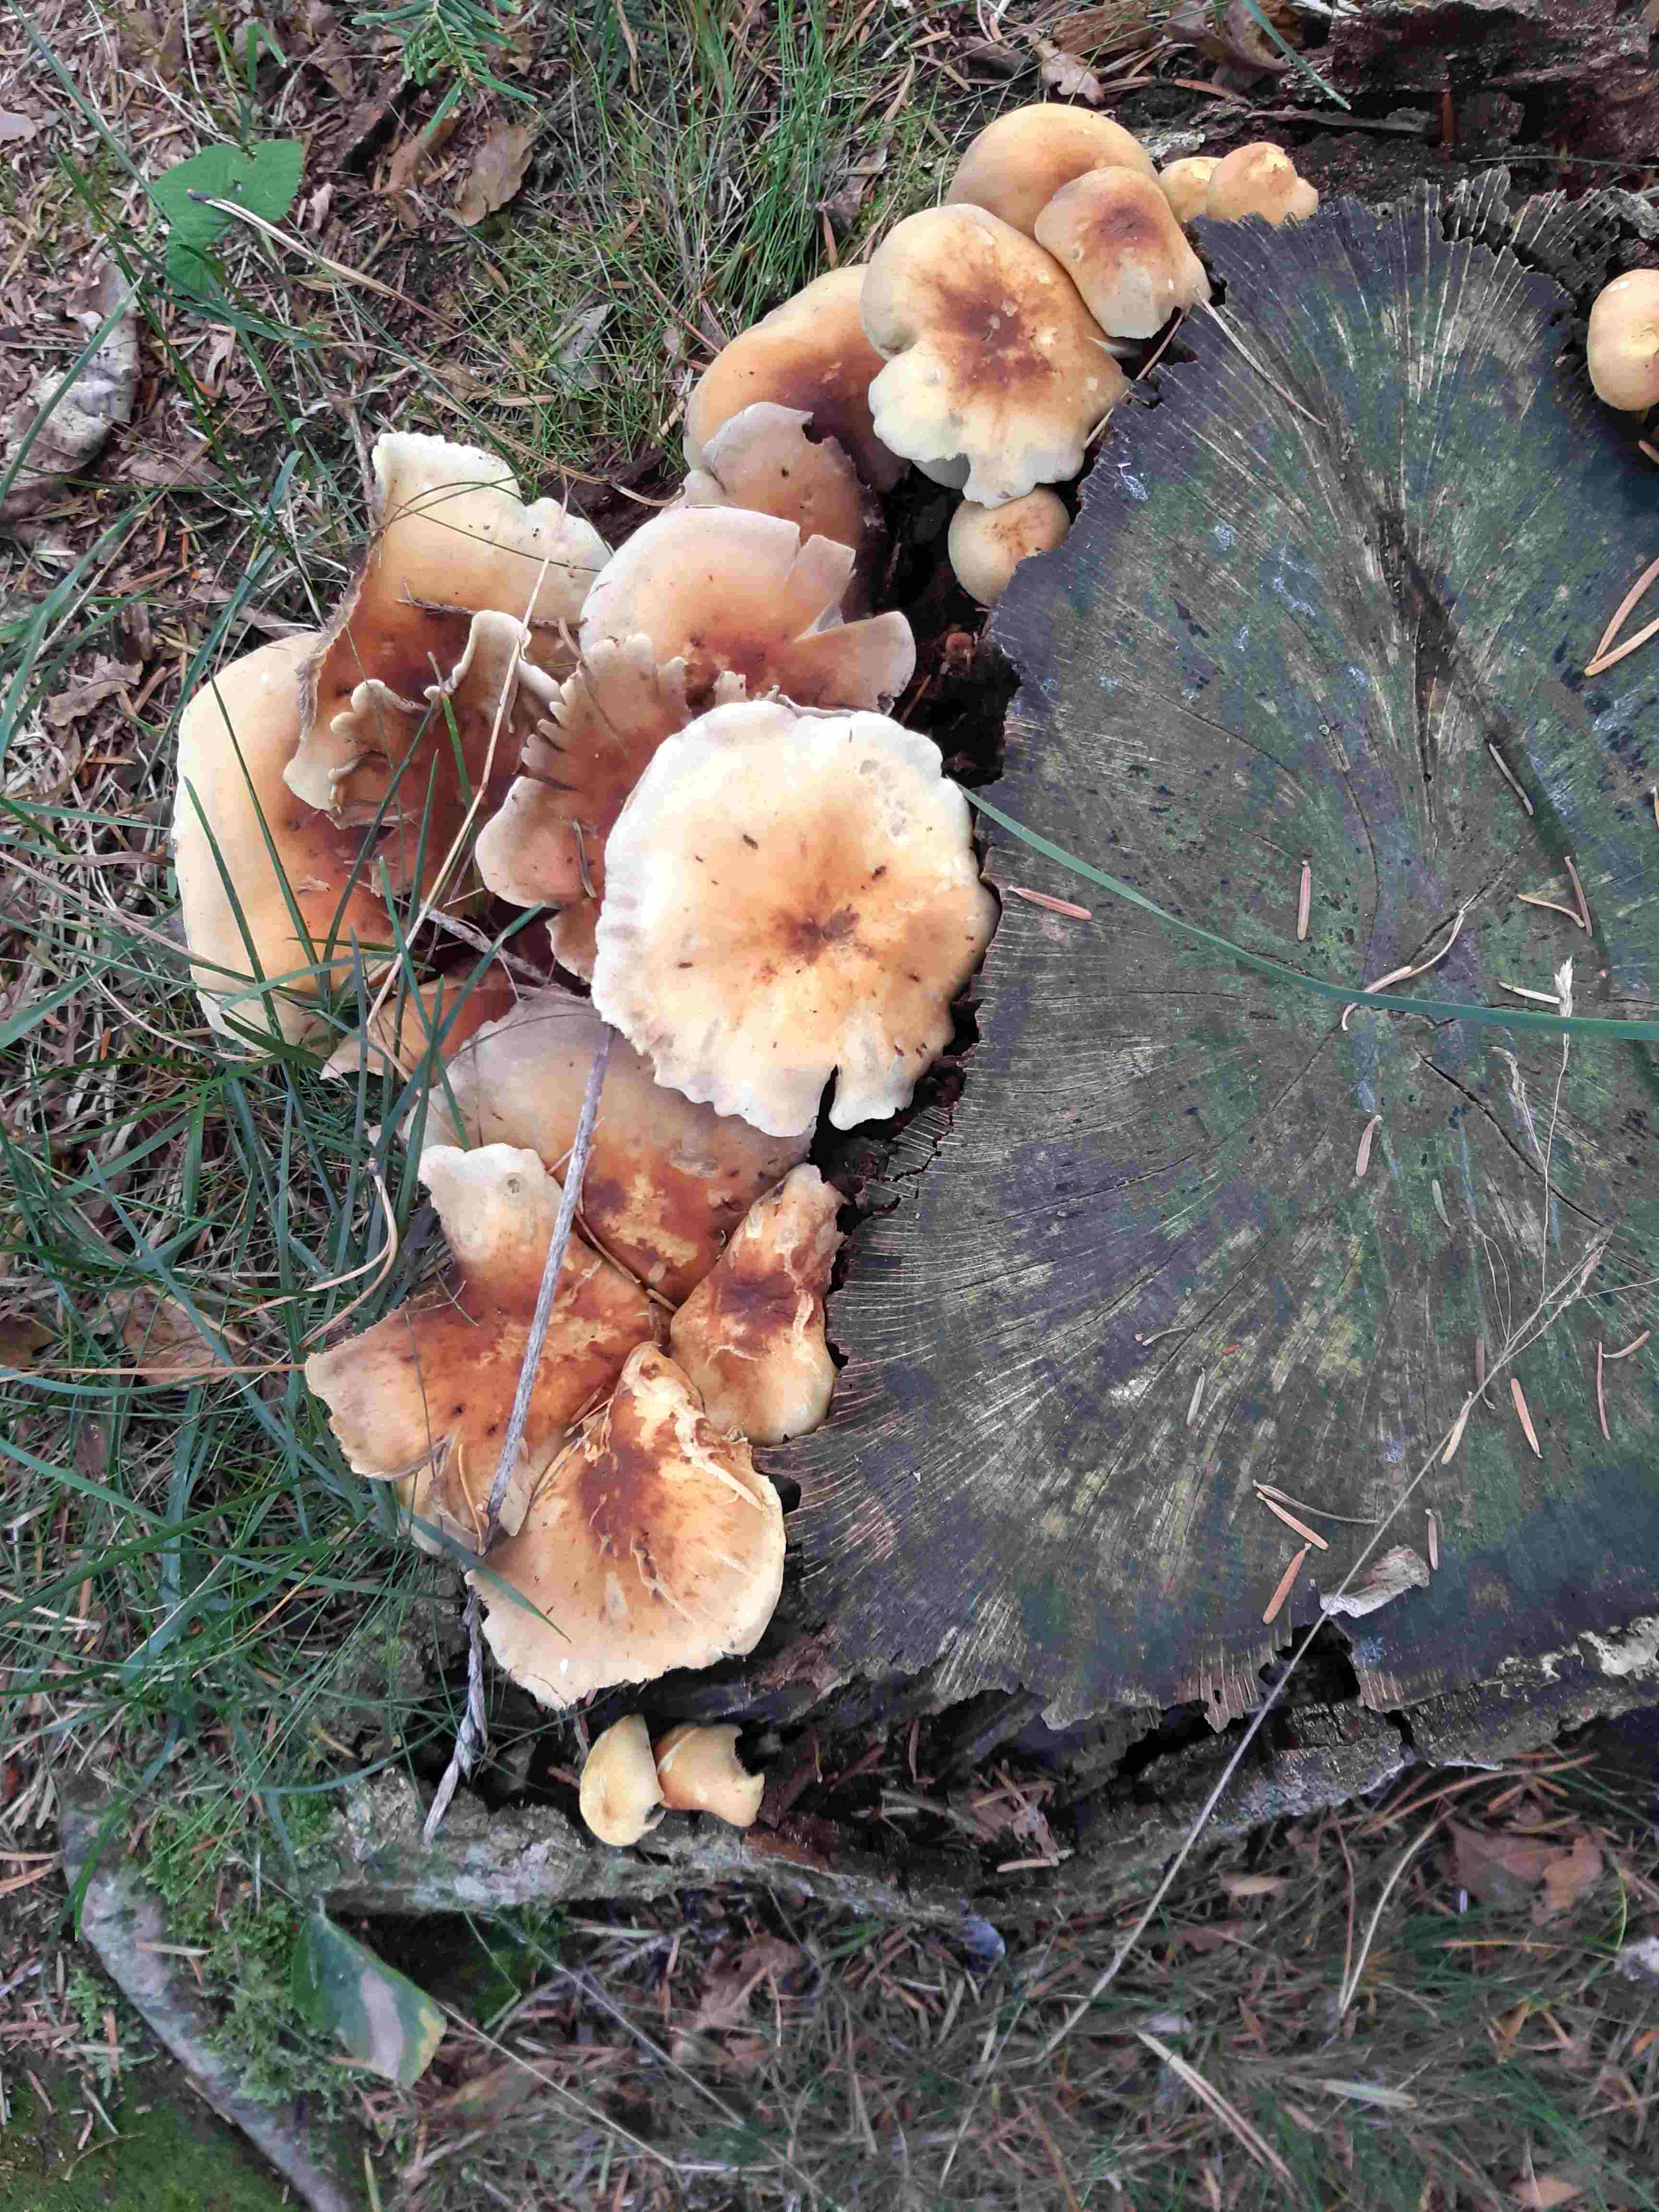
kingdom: Fungi
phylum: Basidiomycota
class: Agaricomycetes
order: Agaricales
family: Strophariaceae
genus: Hypholoma
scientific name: Hypholoma capnoides
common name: gran-svovlhat
